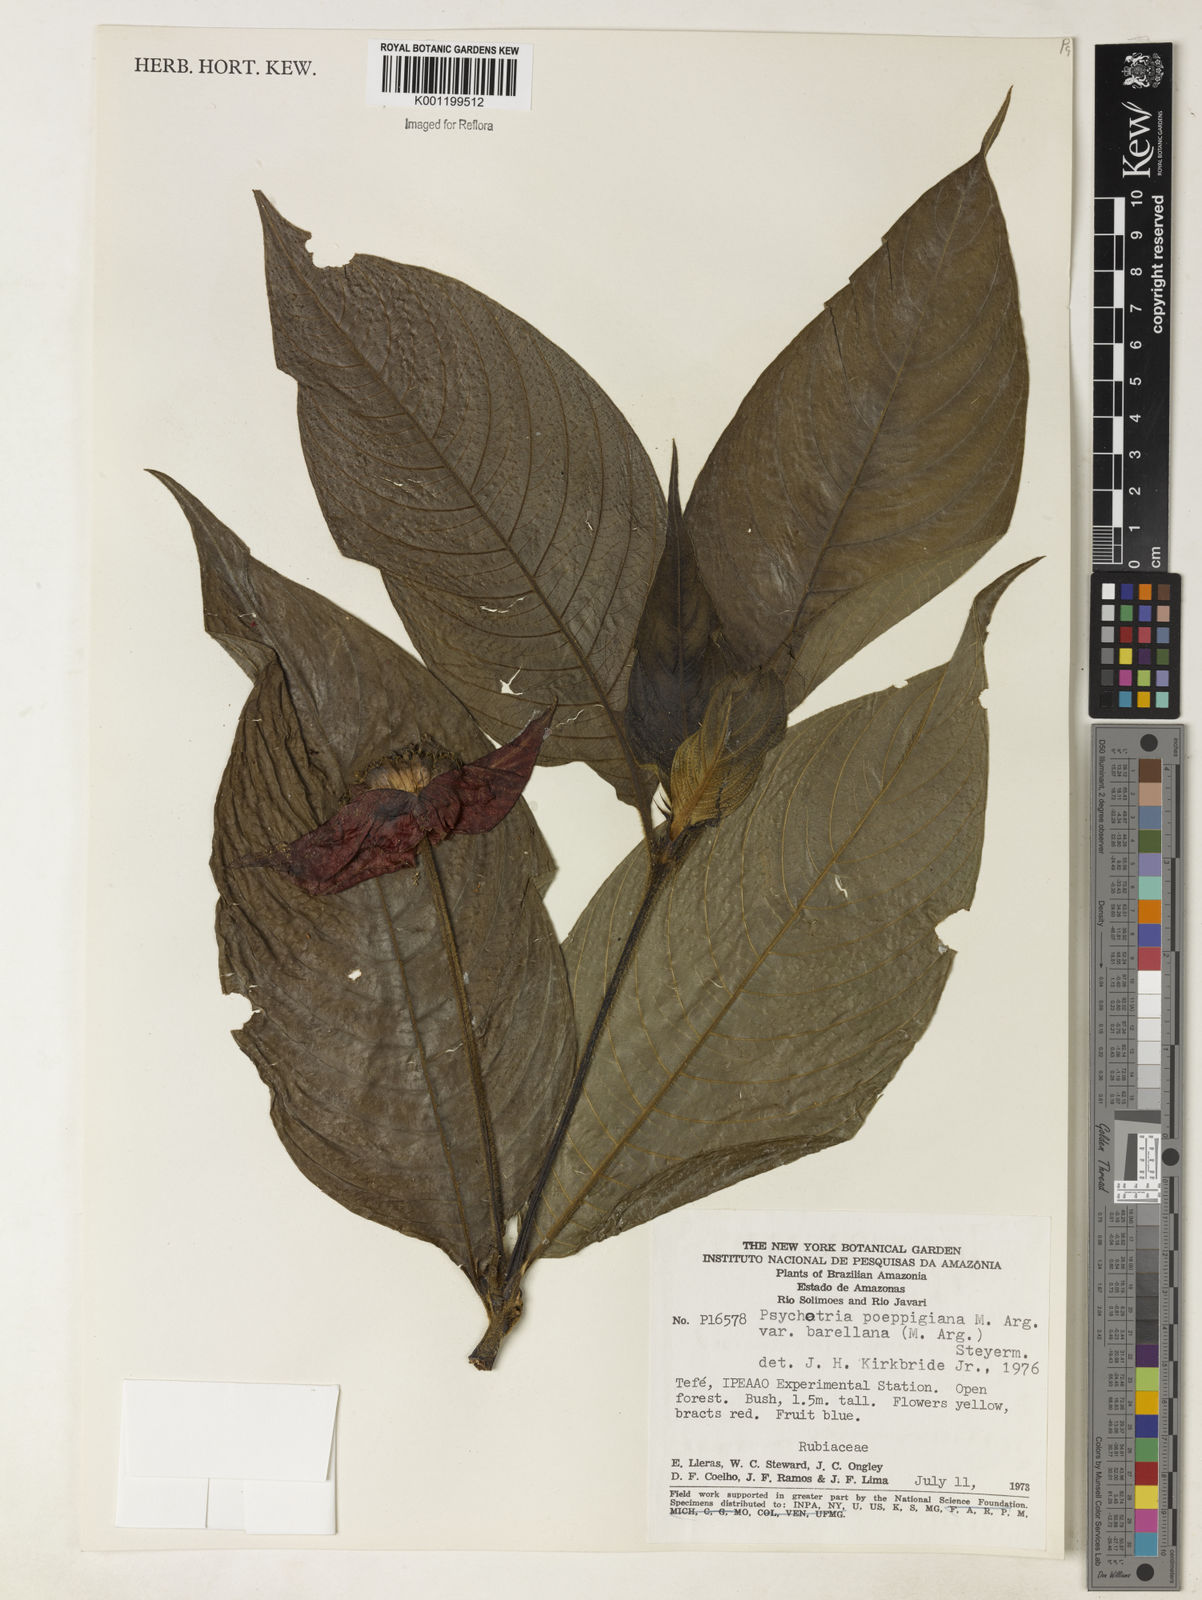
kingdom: Plantae
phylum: Tracheophyta
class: Magnoliopsida
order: Gentianales
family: Rubiaceae
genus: Psychotria
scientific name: Psychotria
